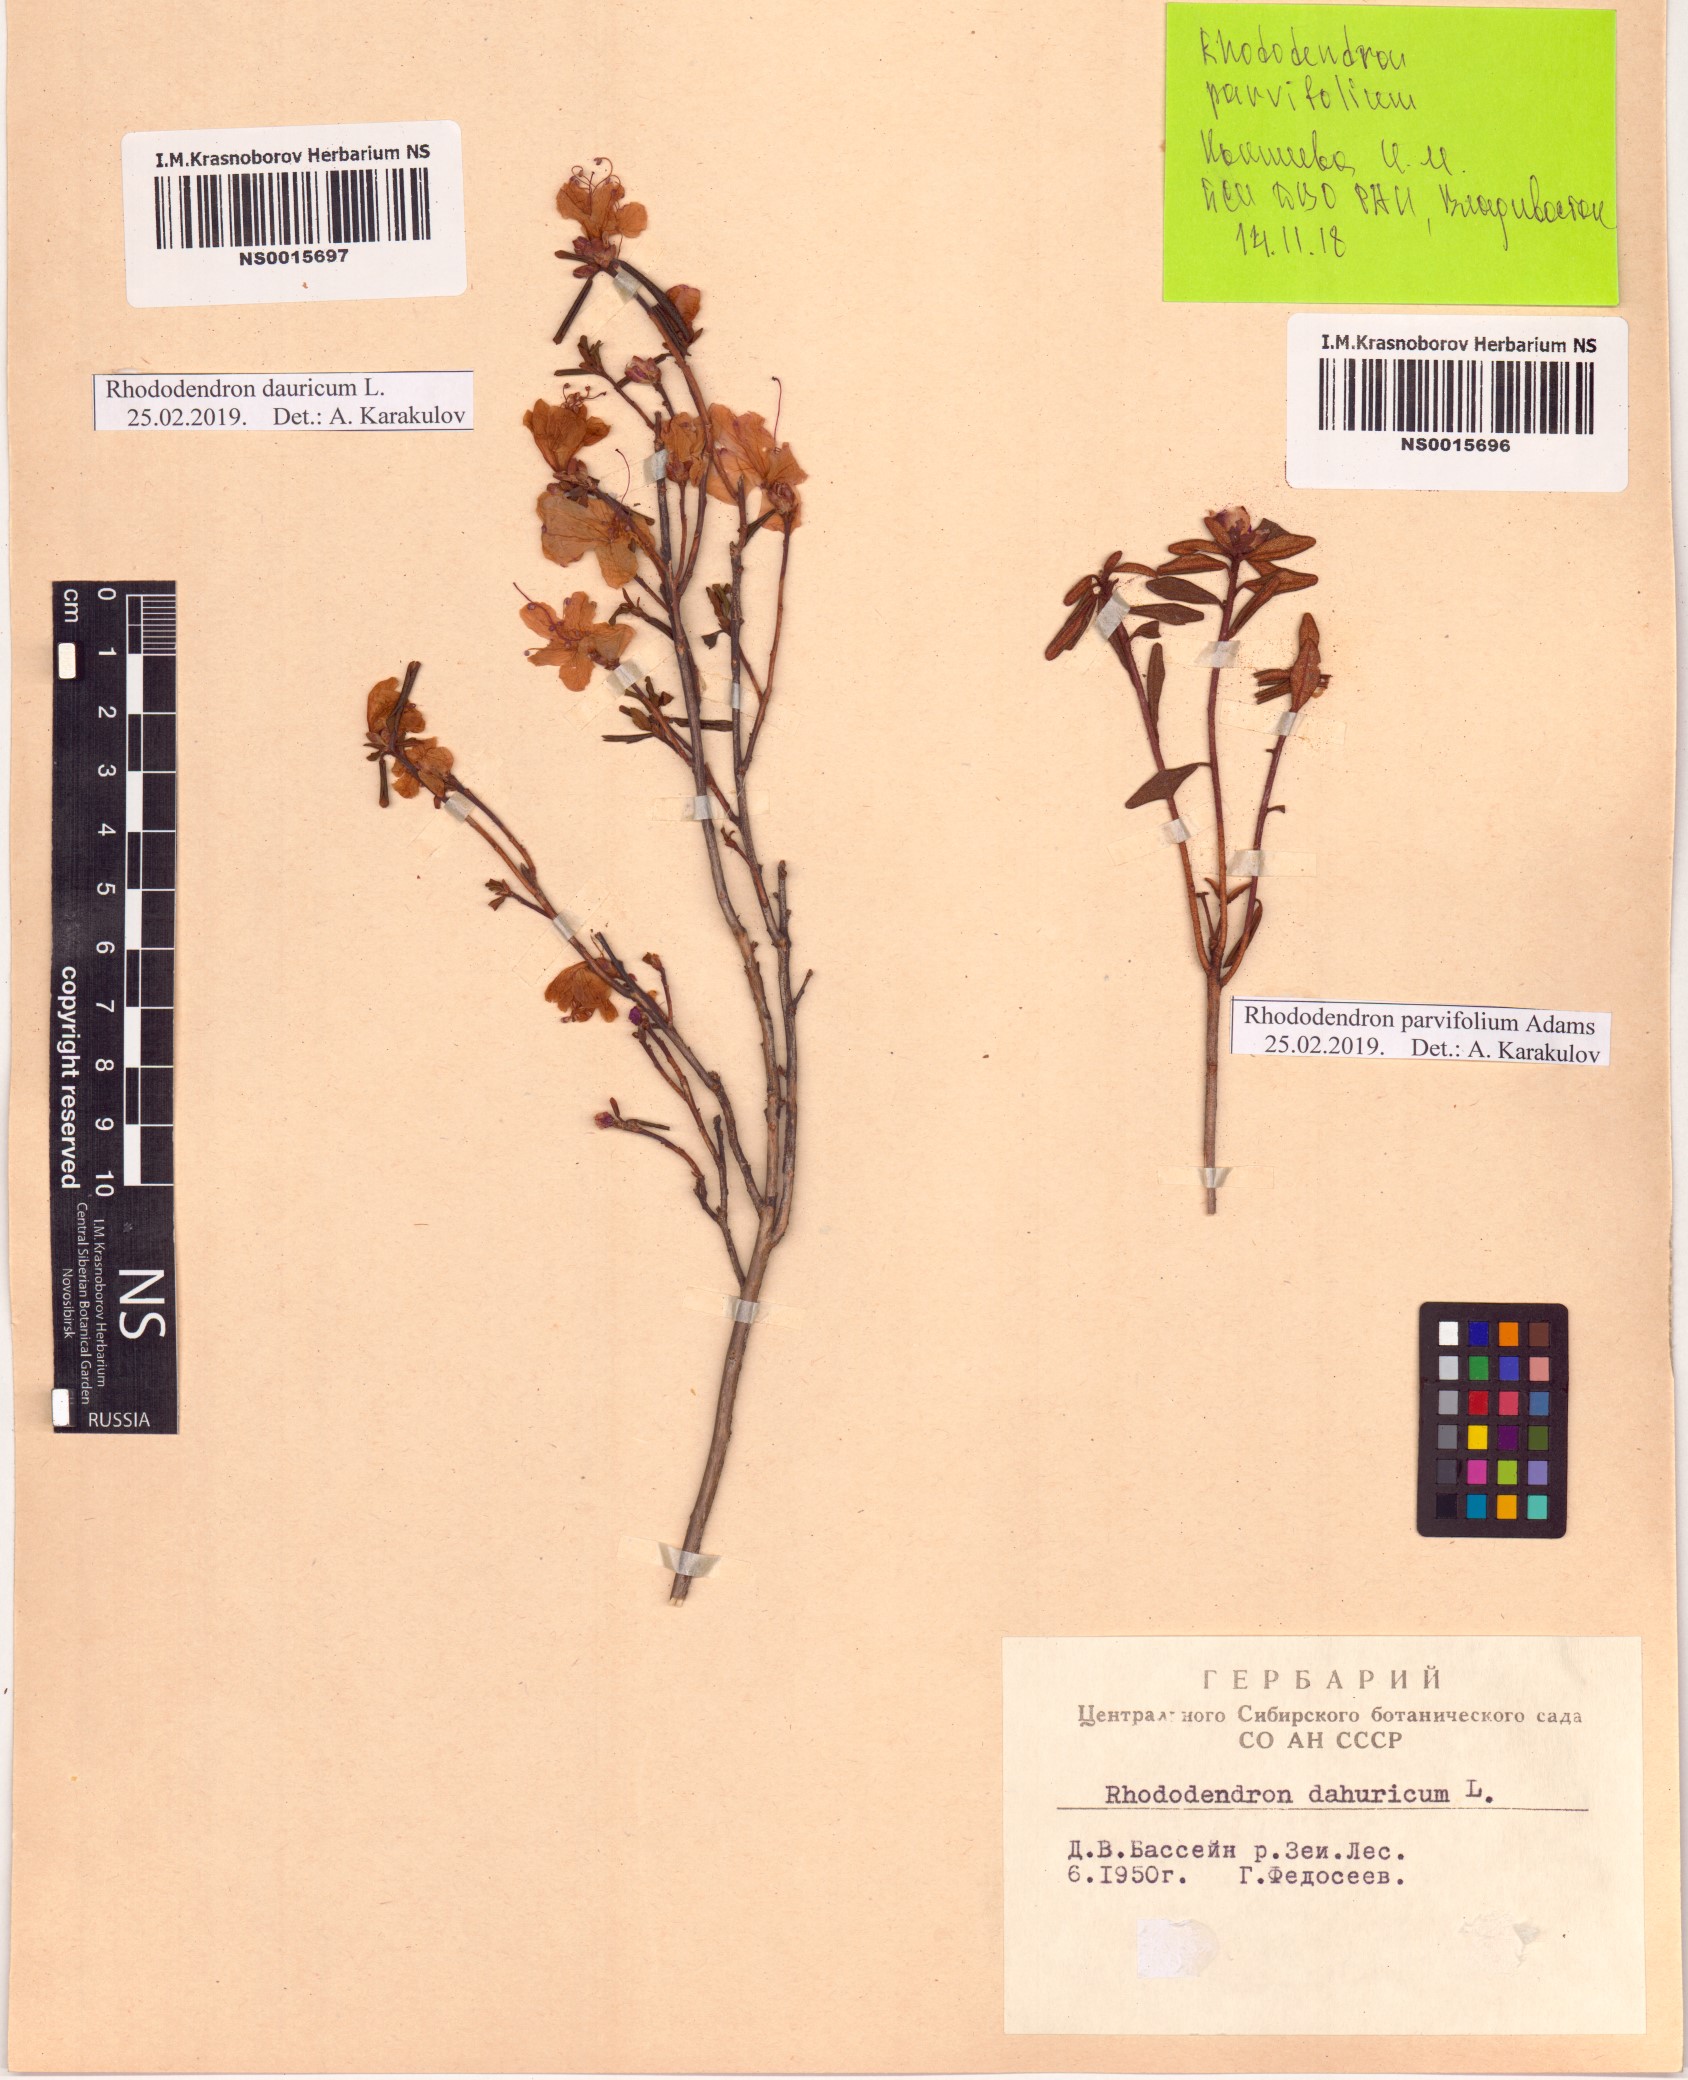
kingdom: Plantae
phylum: Tracheophyta
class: Magnoliopsida
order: Ericales
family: Ericaceae
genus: Rhododendron
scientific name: Rhododendron dauricum
